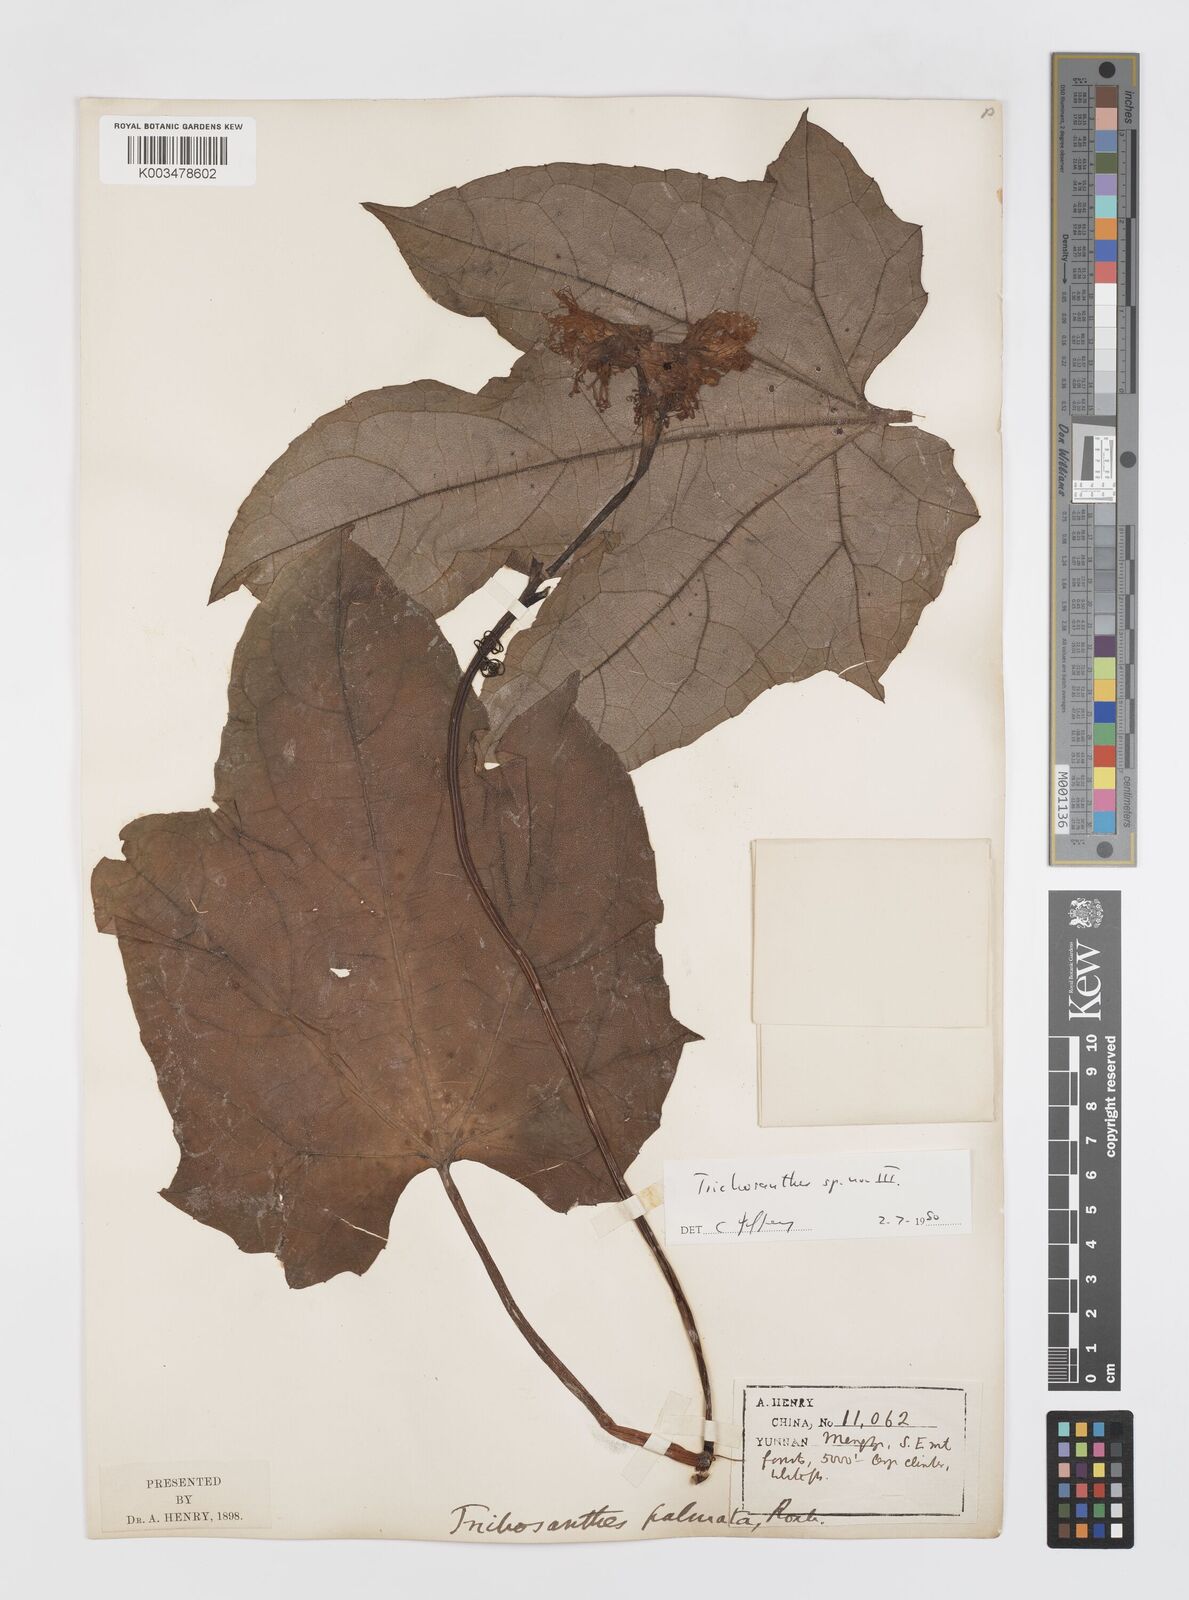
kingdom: Plantae
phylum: Tracheophyta
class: Magnoliopsida
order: Cucurbitales
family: Cucurbitaceae
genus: Trichosanthes
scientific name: Trichosanthes
